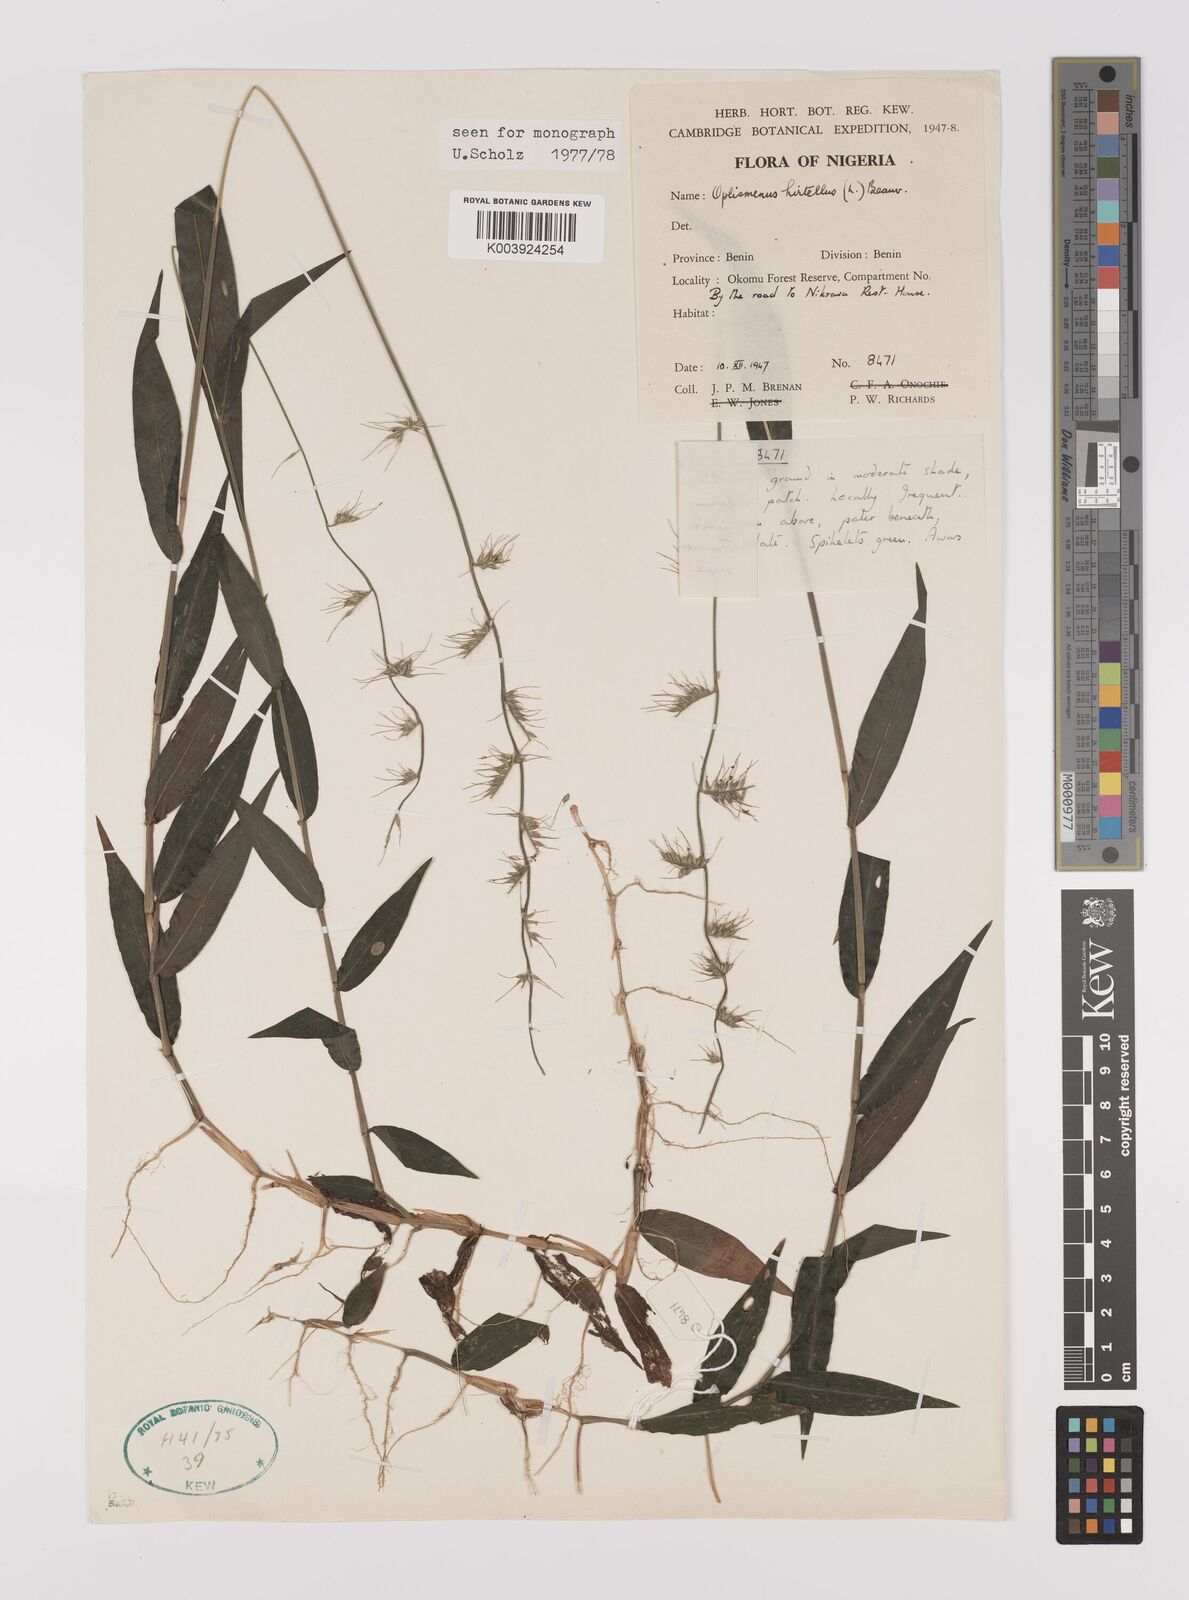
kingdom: Plantae
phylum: Tracheophyta
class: Liliopsida
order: Poales
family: Poaceae
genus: Oplismenus
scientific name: Oplismenus hirtellus
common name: Basketgrass
